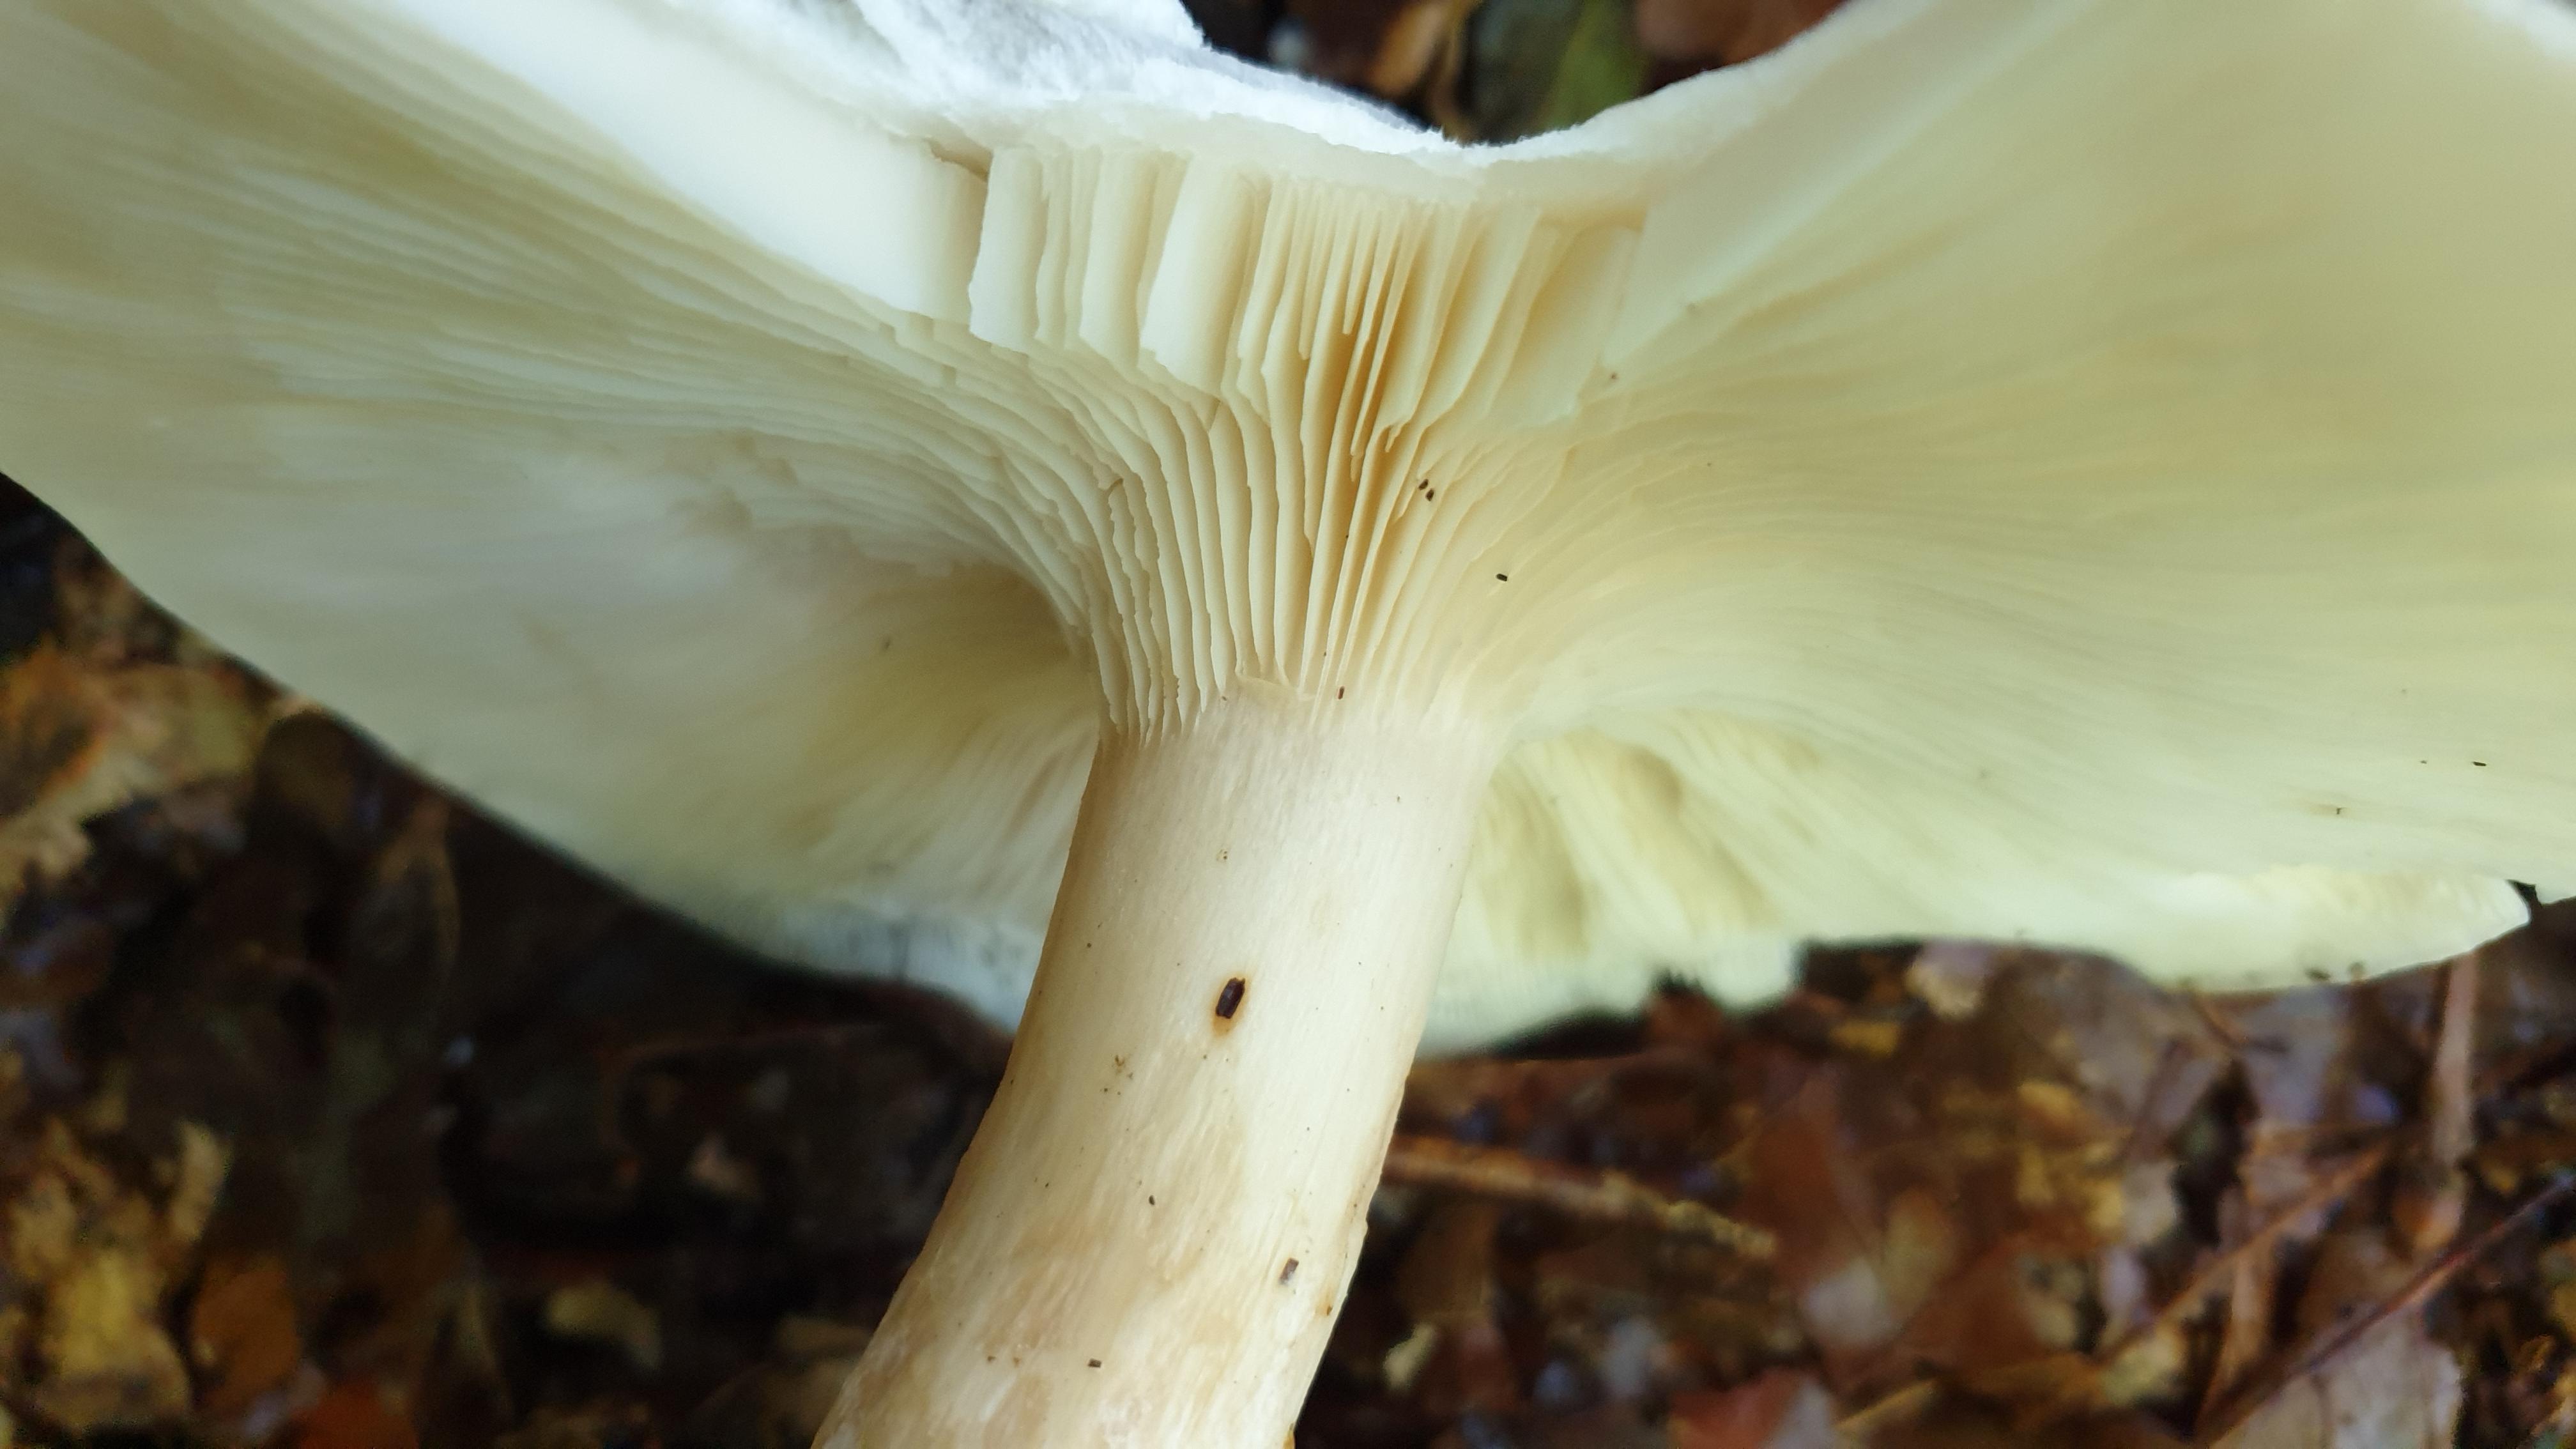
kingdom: Fungi
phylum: Basidiomycota
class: Agaricomycetes
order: Agaricales
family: Tricholomataceae
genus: Clitocybe
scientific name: Clitocybe nebularis
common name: tåge-tragthat
